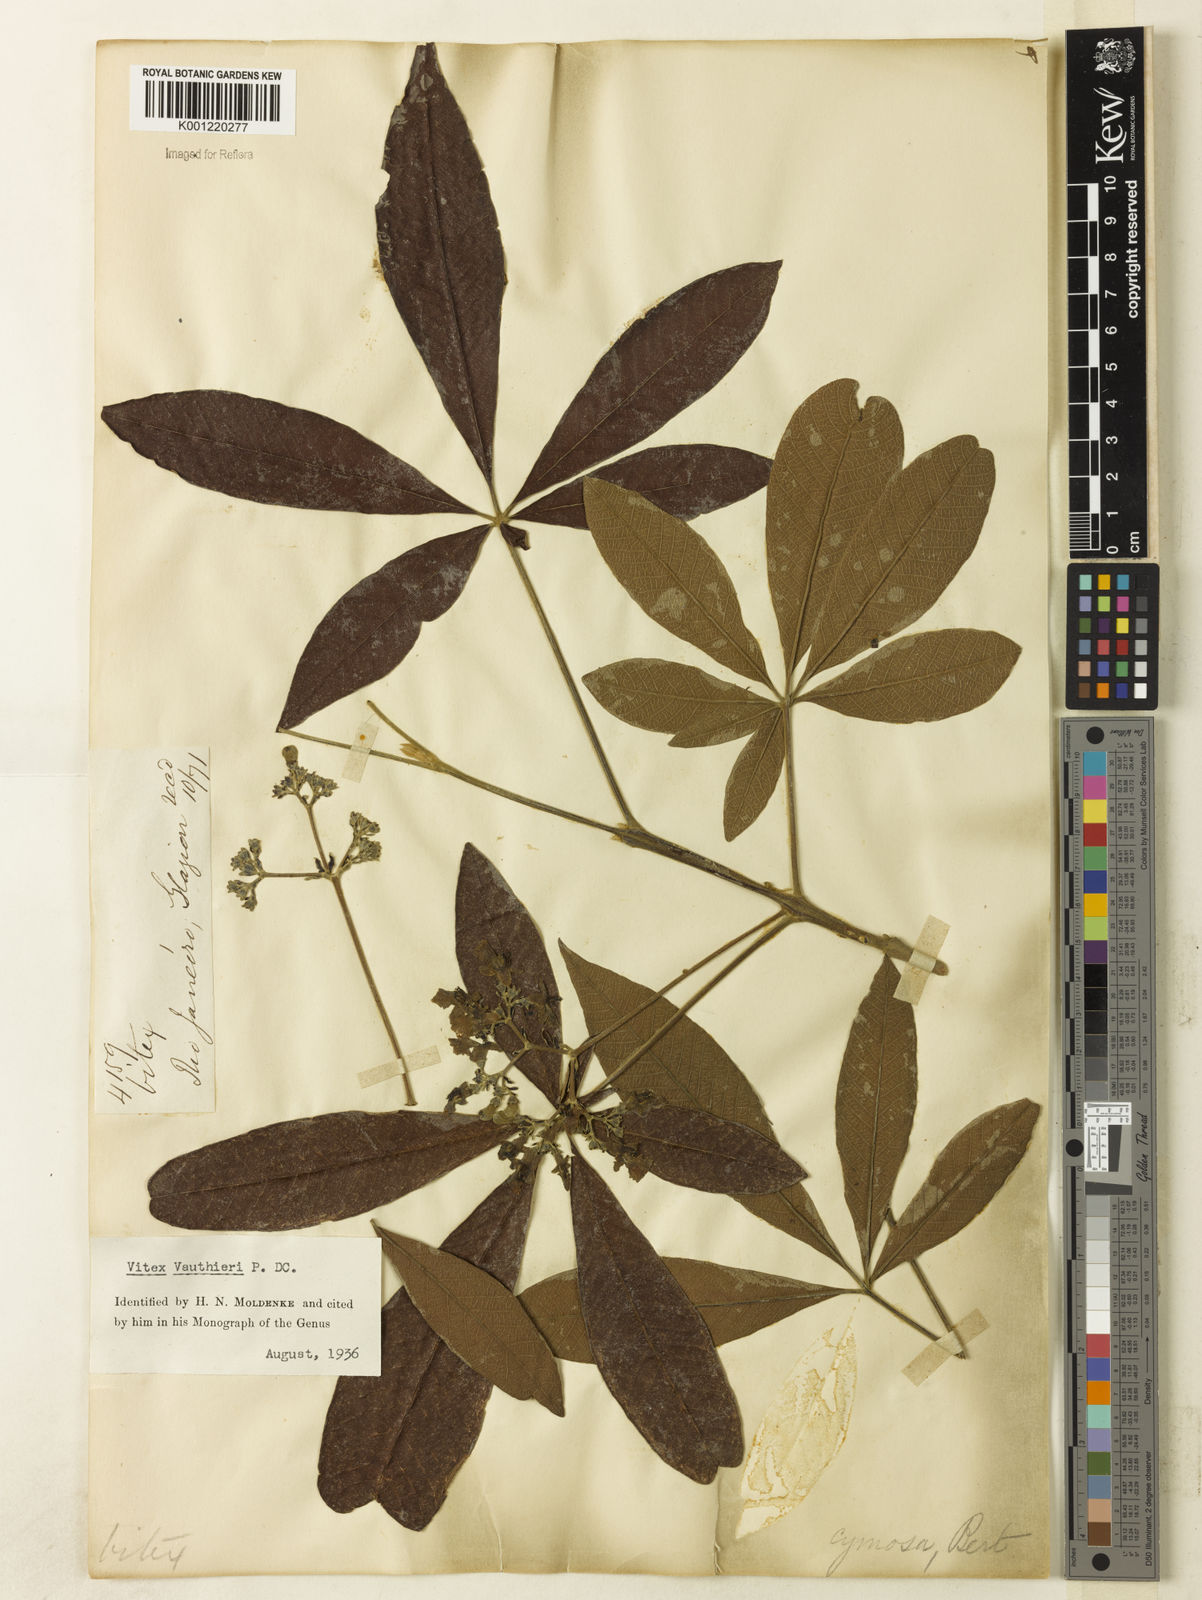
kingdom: Plantae
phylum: Tracheophyta
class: Magnoliopsida
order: Lamiales
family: Lamiaceae
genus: Vitex
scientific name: Vitex vauthieri
